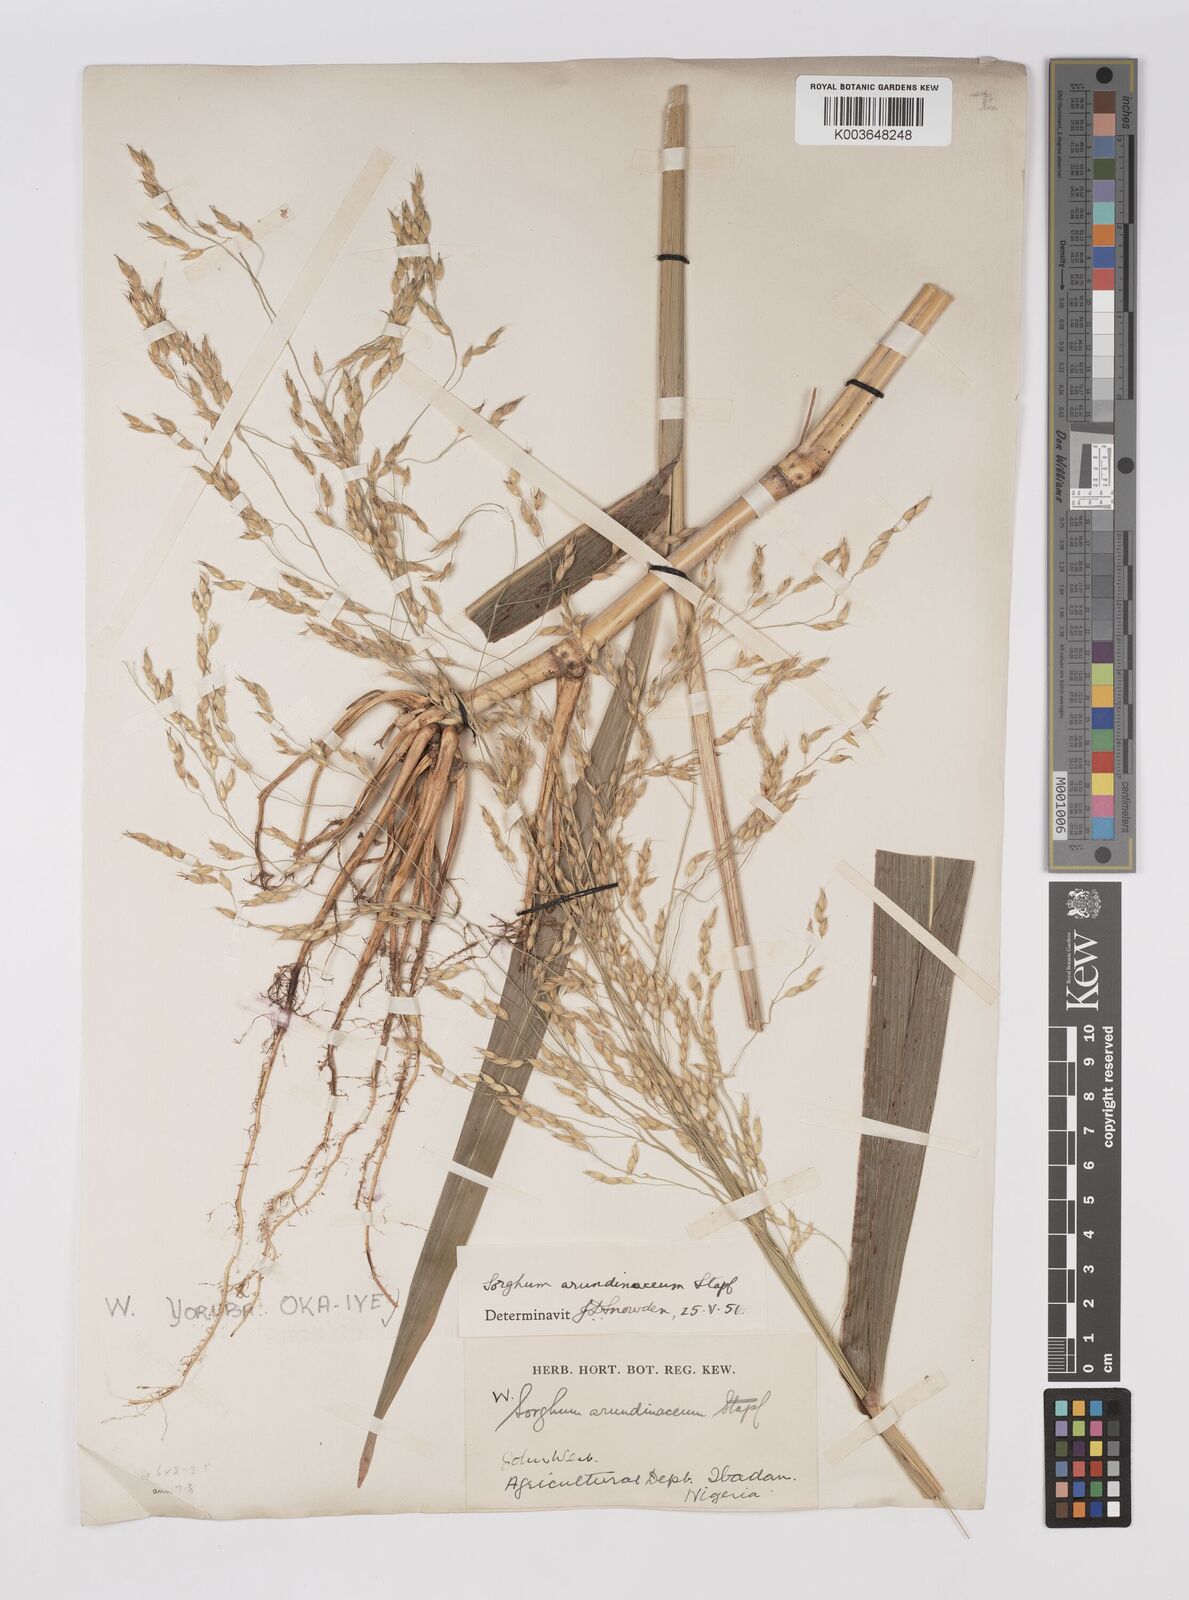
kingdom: Plantae
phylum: Tracheophyta
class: Liliopsida
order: Poales
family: Poaceae
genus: Sorghum
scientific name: Sorghum arundinaceum
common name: Sorghum
